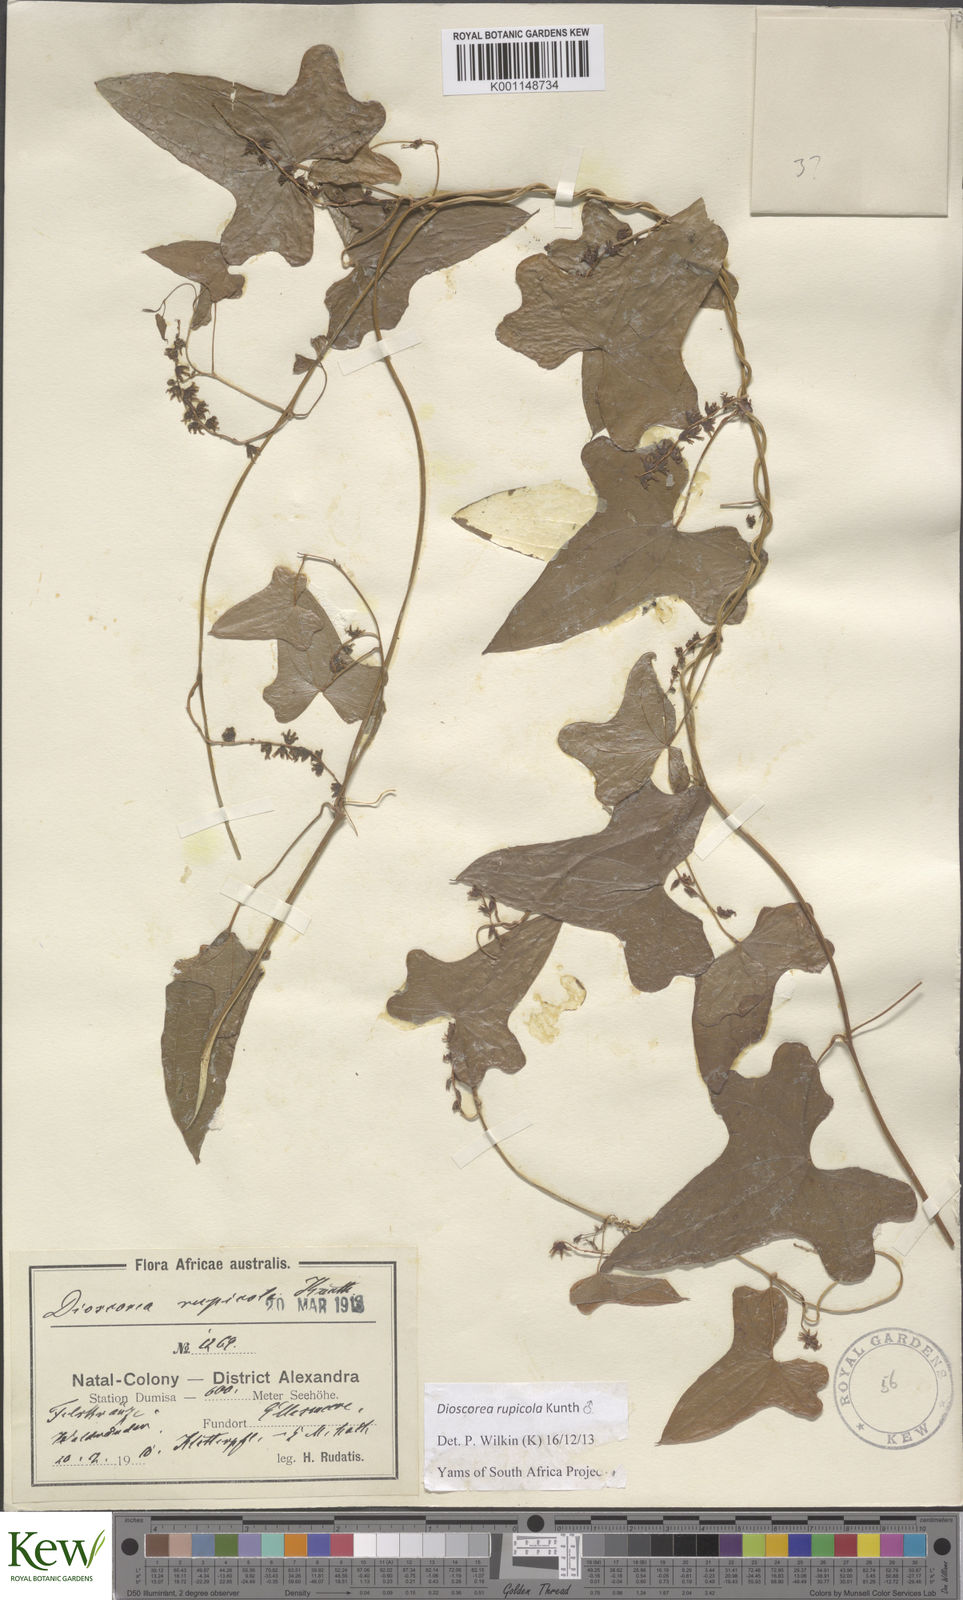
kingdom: Plantae
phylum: Tracheophyta
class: Liliopsida
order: Dioscoreales
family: Dioscoreaceae
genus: Dioscorea
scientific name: Dioscorea rupicola
